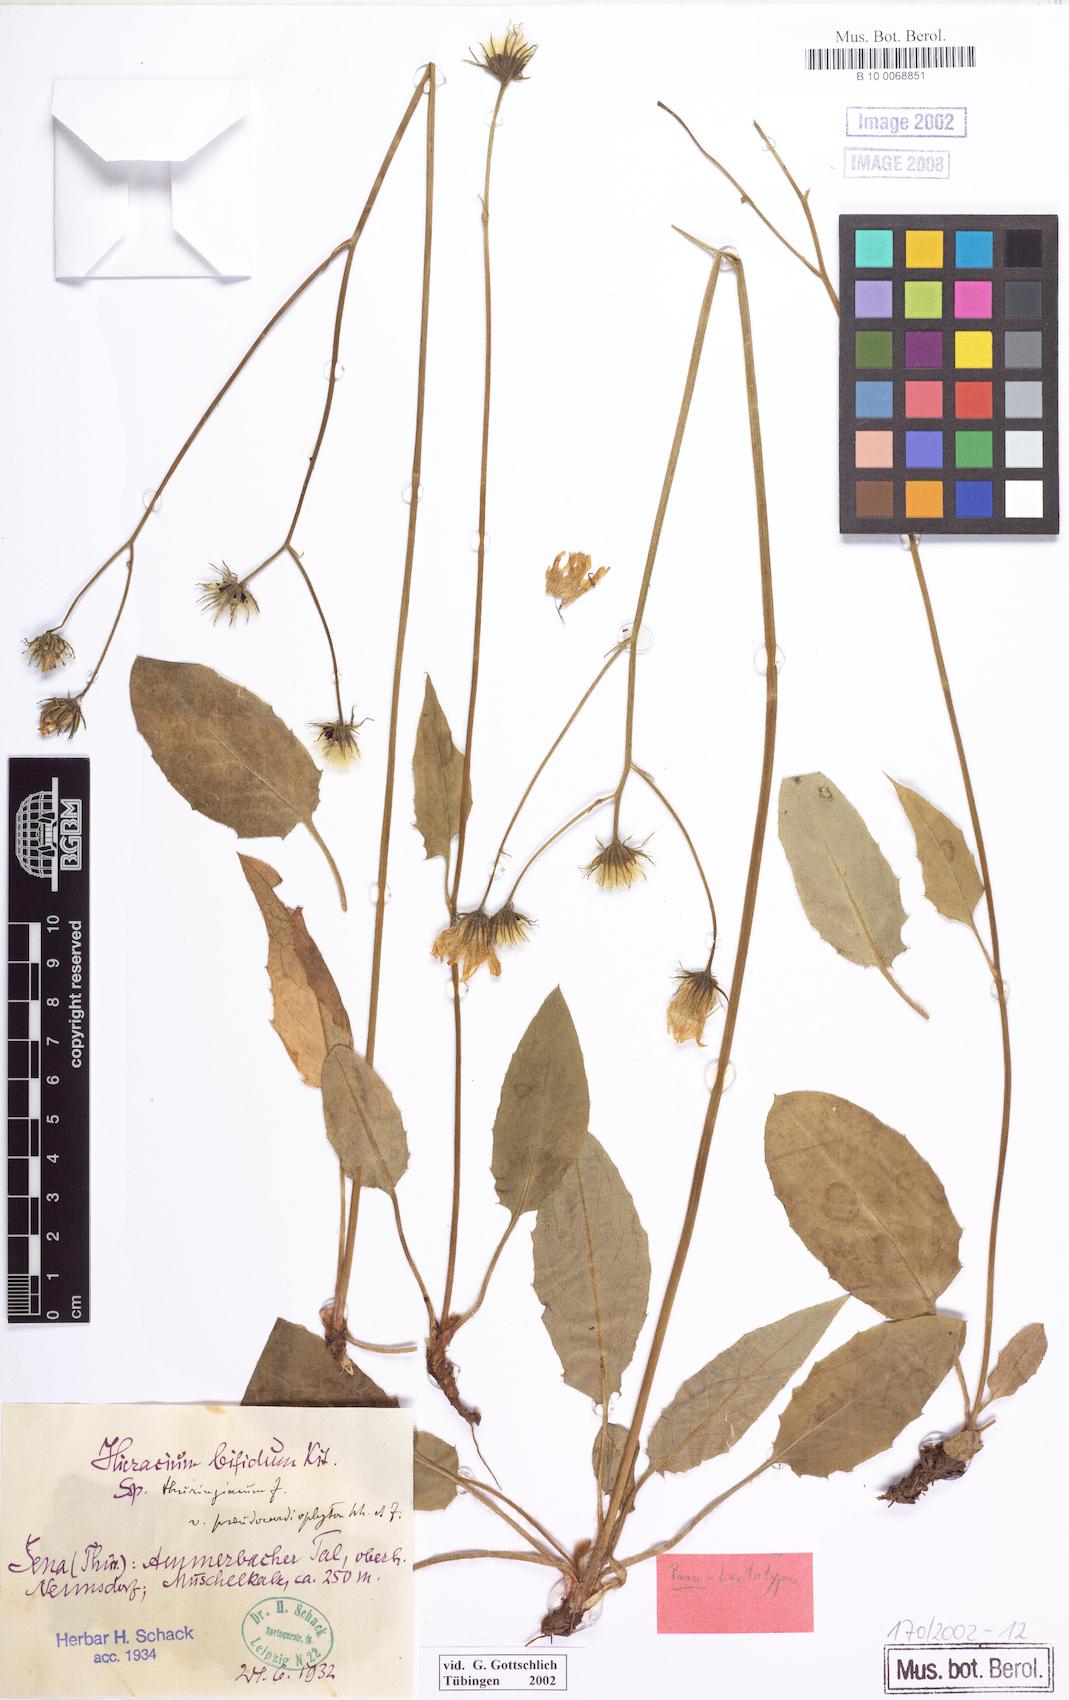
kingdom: Plantae
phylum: Tracheophyta
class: Magnoliopsida
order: Asterales
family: Asteraceae
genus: Hieracium
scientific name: Hieracium bifidum
